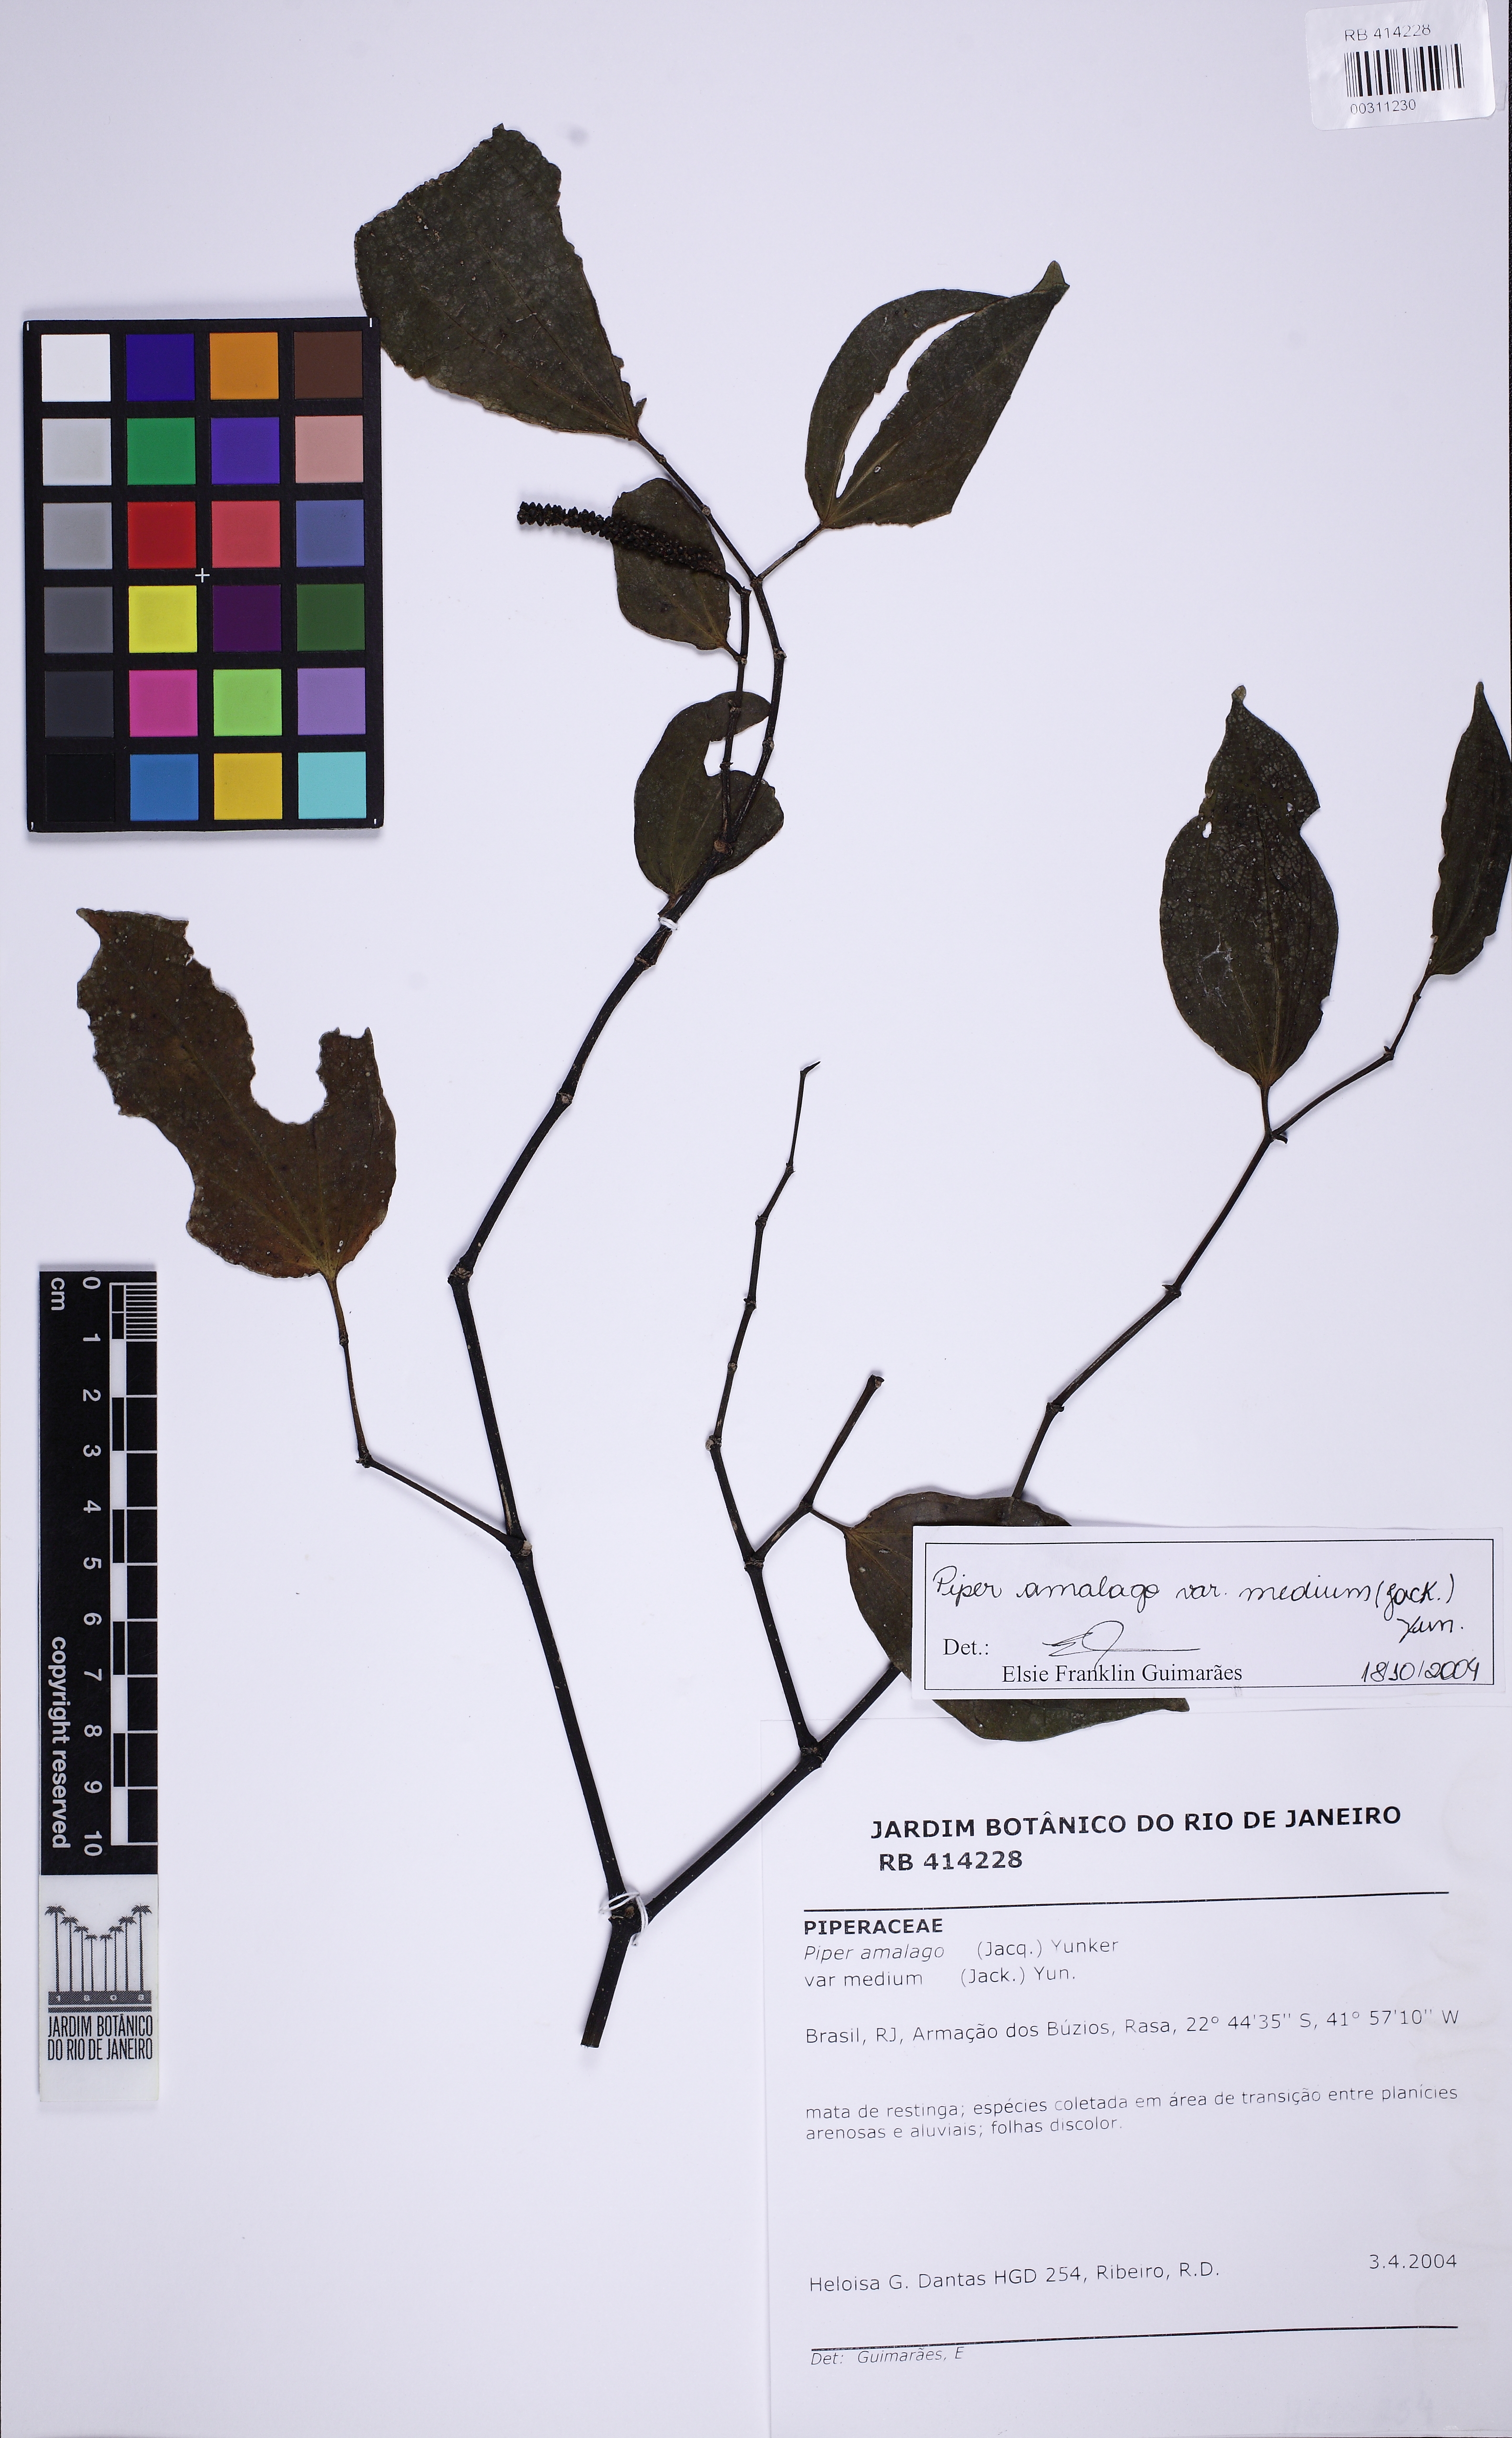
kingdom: Plantae
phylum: Tracheophyta
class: Magnoliopsida
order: Piperales
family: Piperaceae
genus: Piper
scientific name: Piper amalago
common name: Pepper-elder
